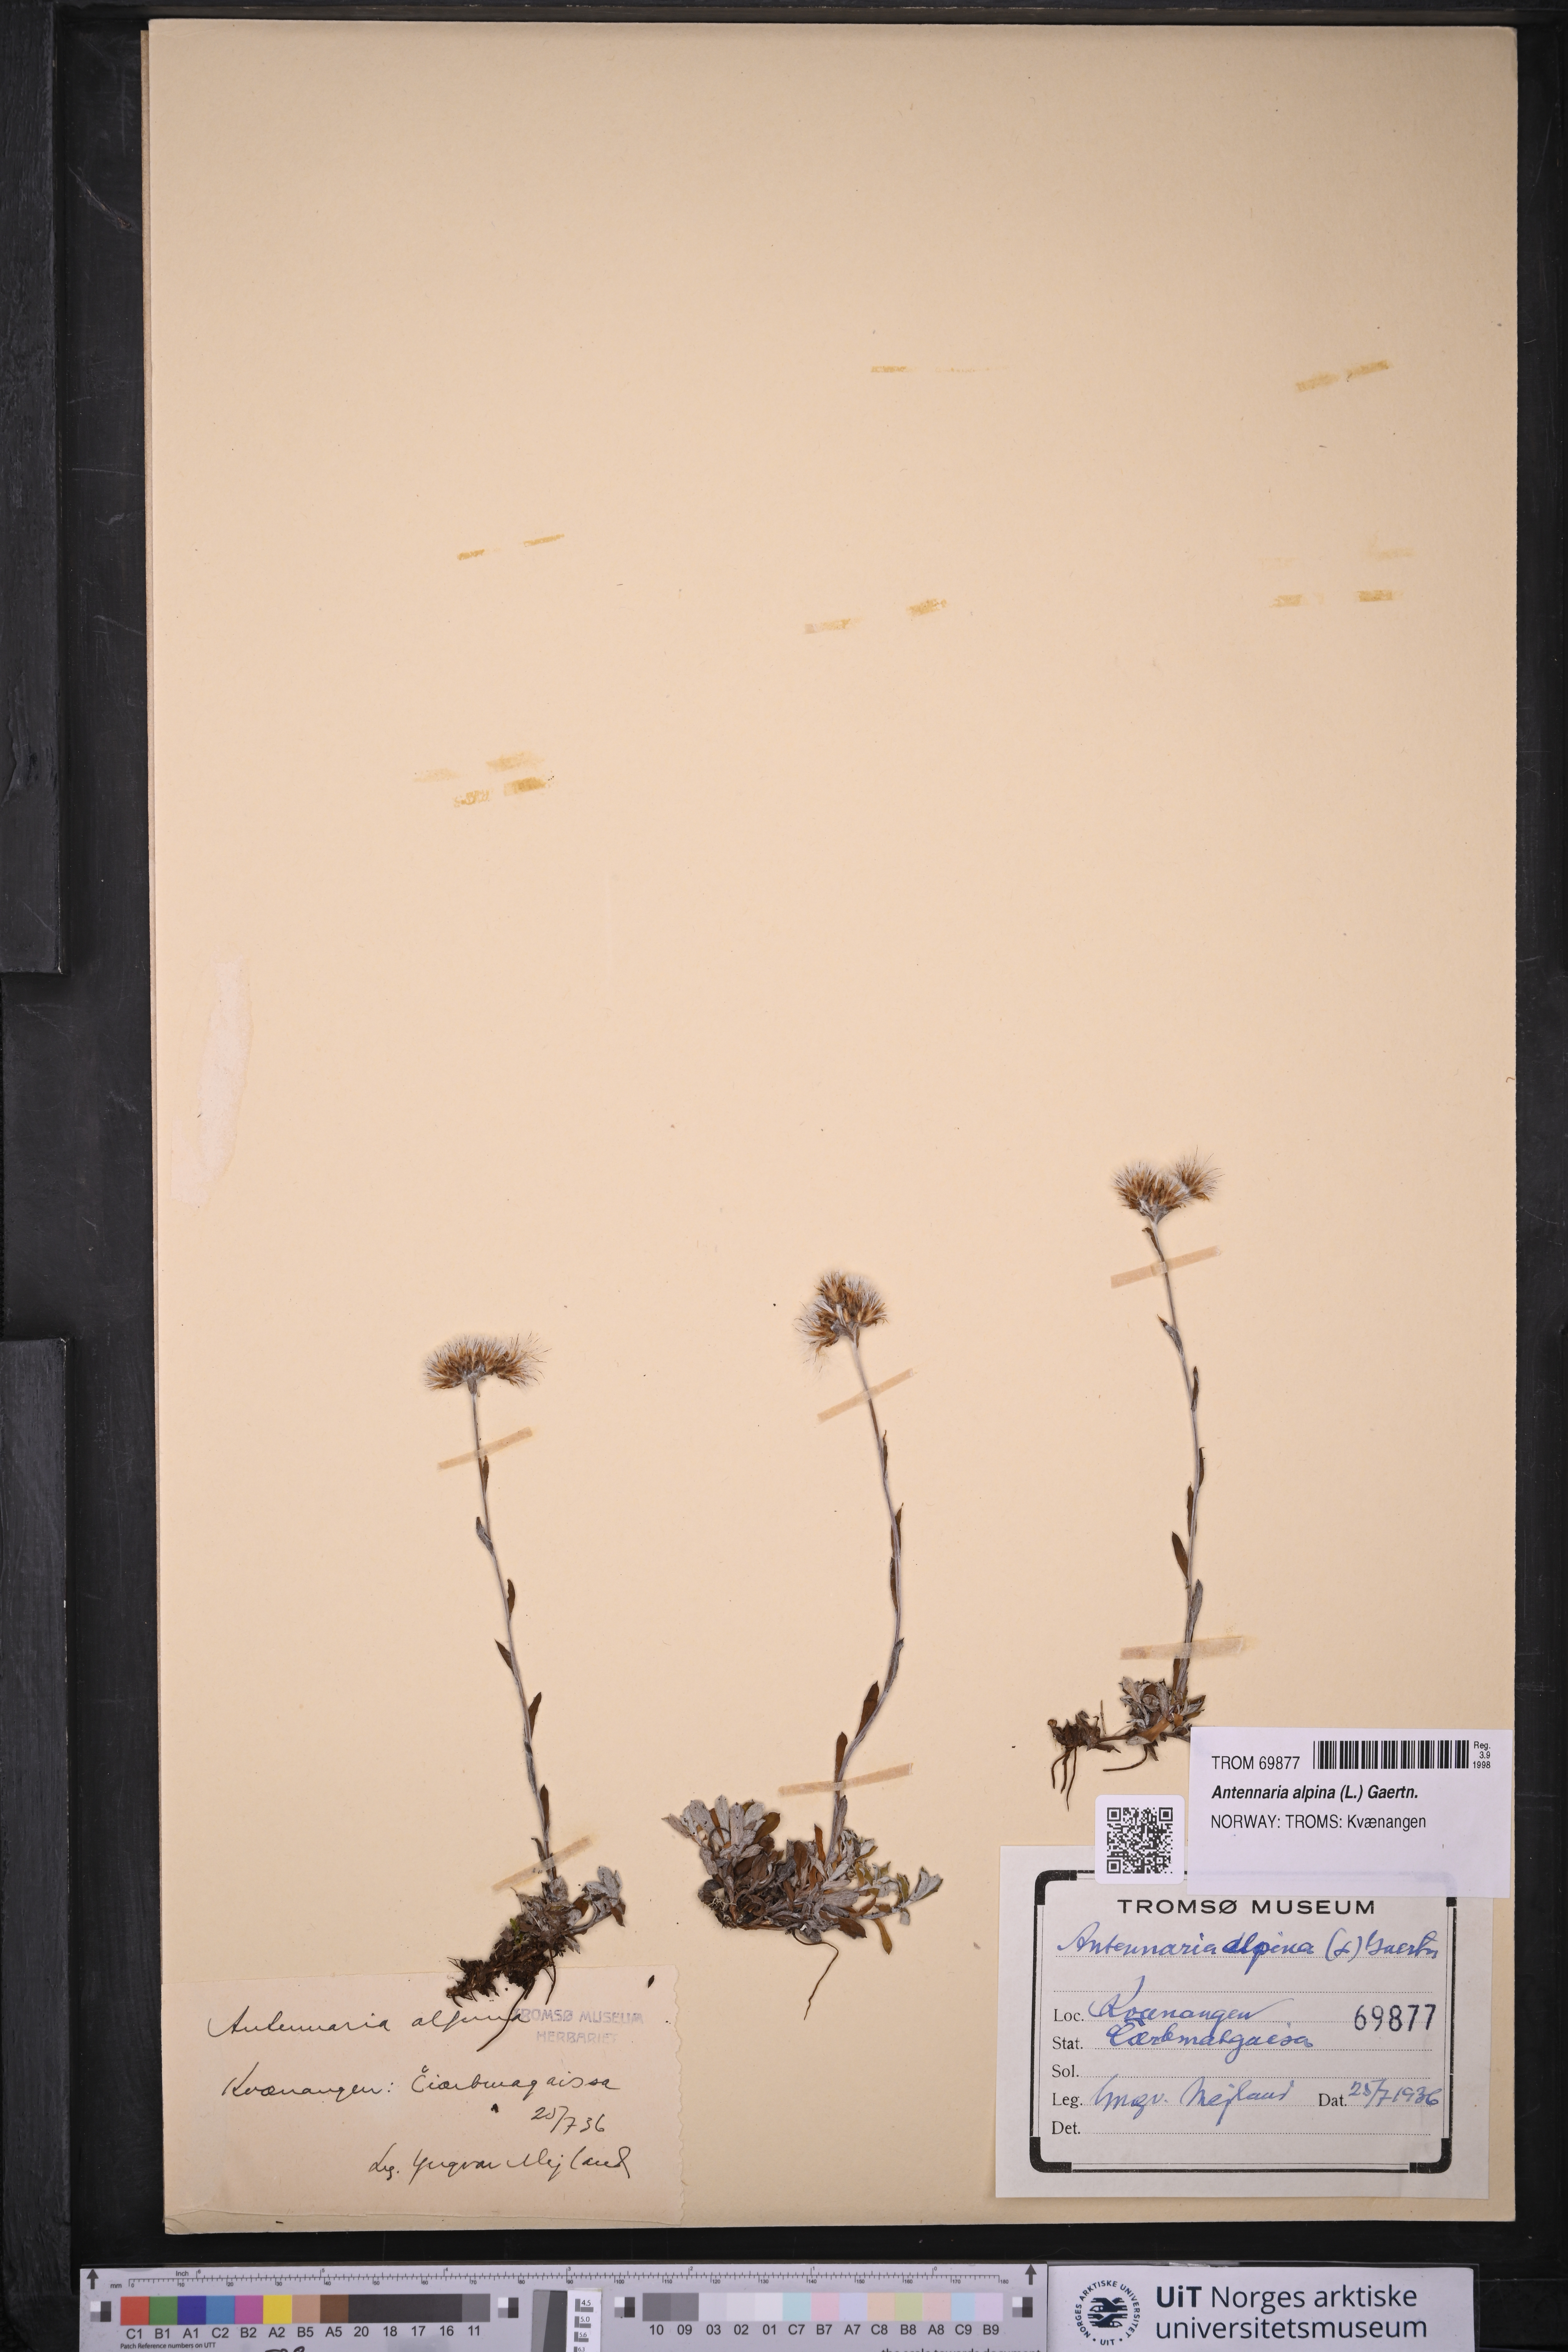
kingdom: Plantae
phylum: Tracheophyta
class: Magnoliopsida
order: Asterales
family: Asteraceae
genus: Antennaria
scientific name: Antennaria alpina
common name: Alpine pussytoes
